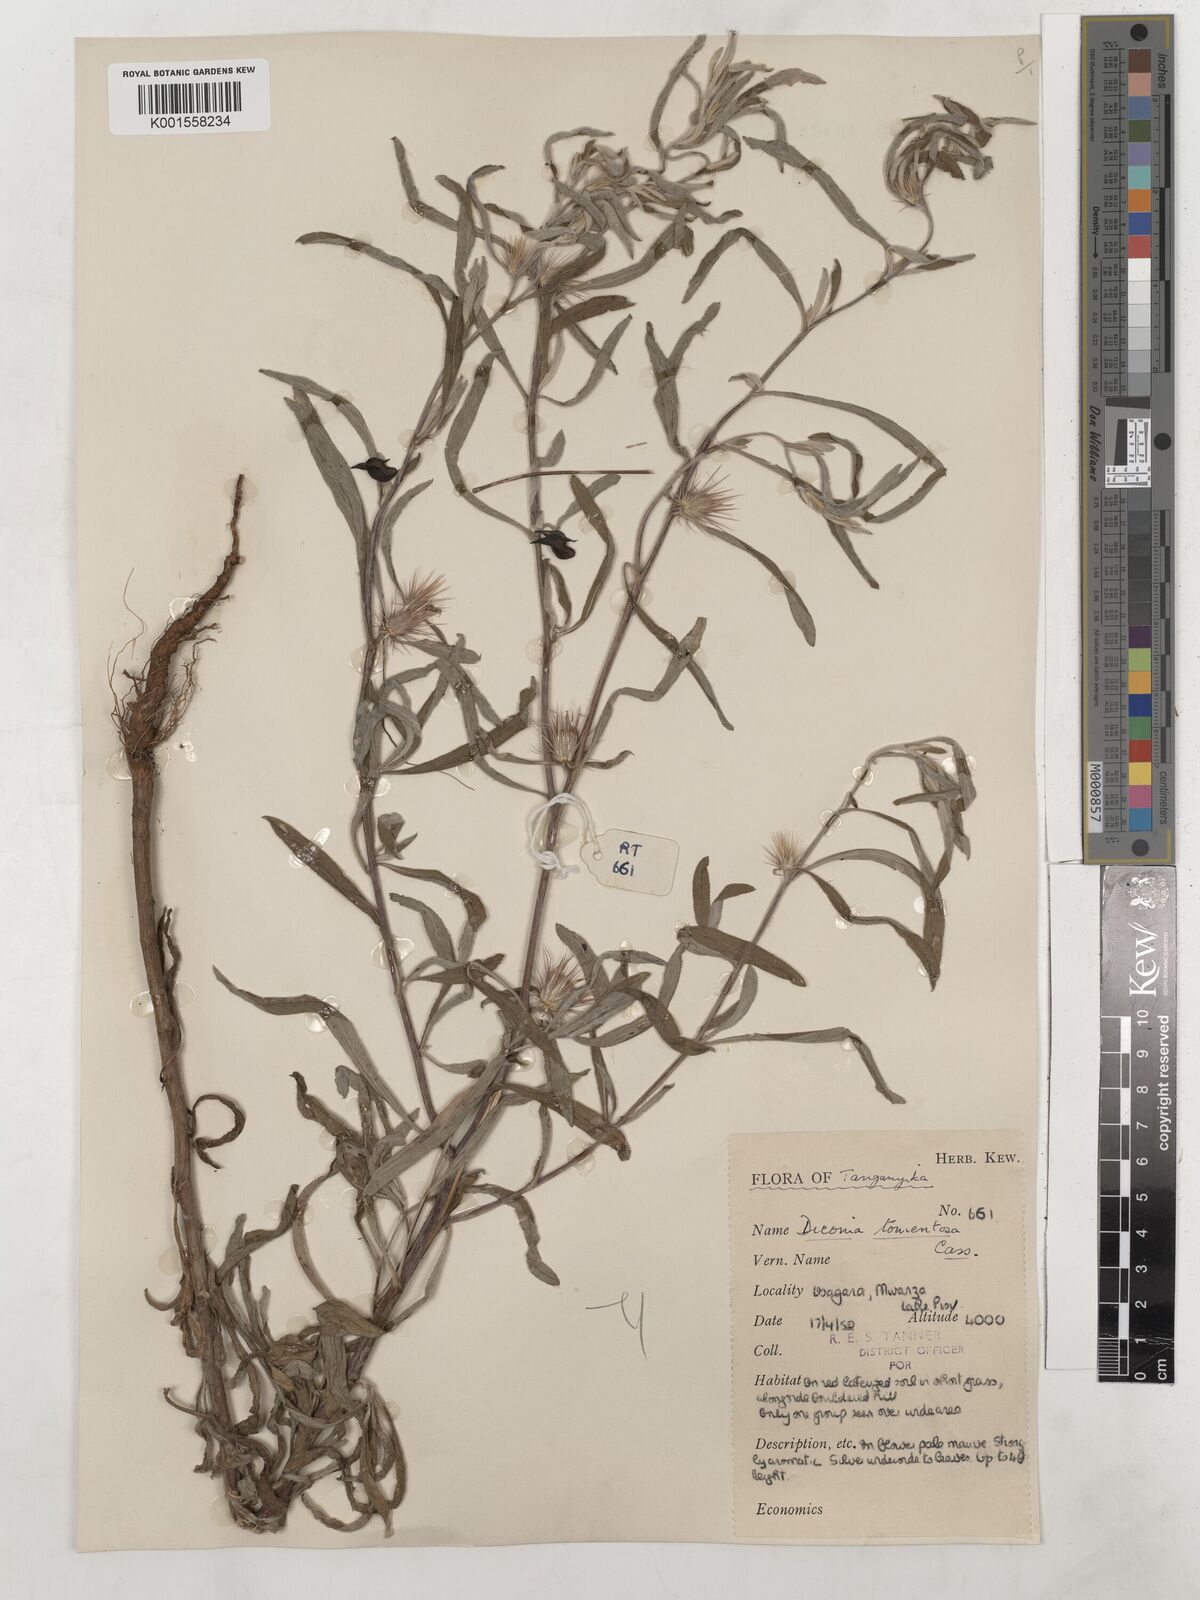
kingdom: Plantae
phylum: Tracheophyta
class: Magnoliopsida
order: Asterales
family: Asteraceae
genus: Dicoma
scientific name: Dicoma tomentosa
